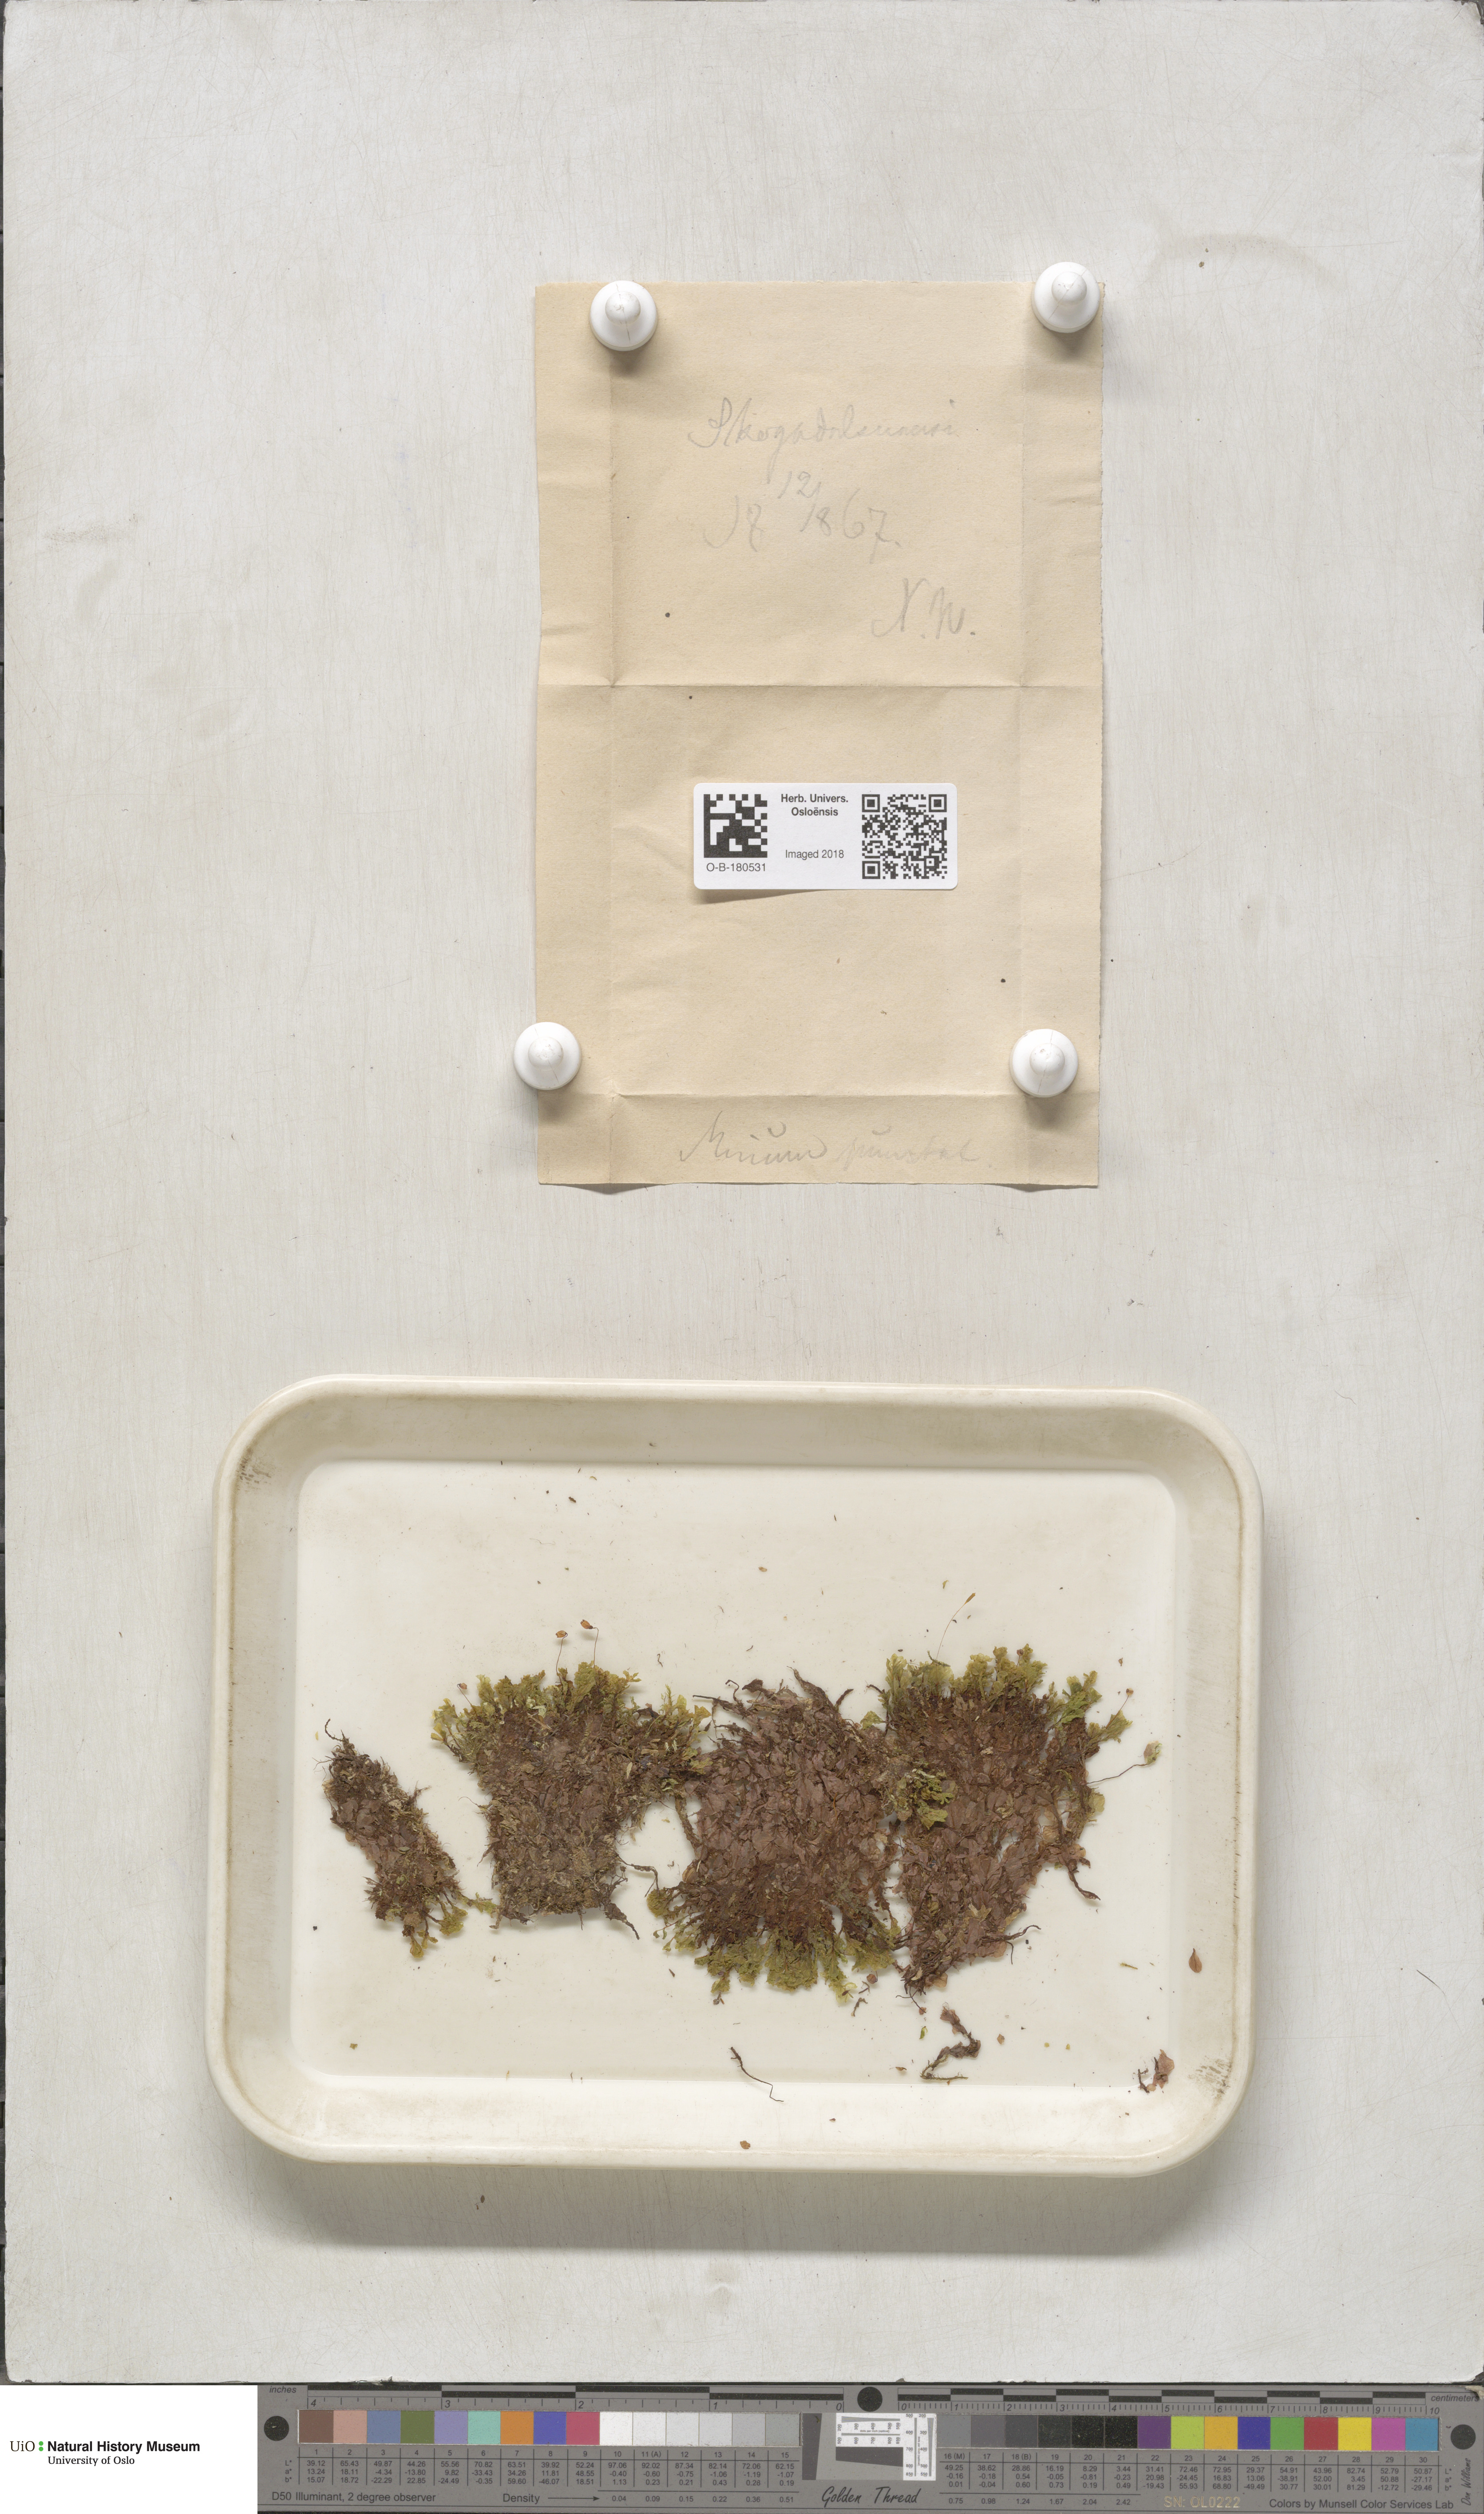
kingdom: Plantae
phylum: Bryophyta
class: Bryopsida
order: Bryales
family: Mniaceae
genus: Rhizomnium
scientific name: Rhizomnium punctatum
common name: Dotted leafy moss
